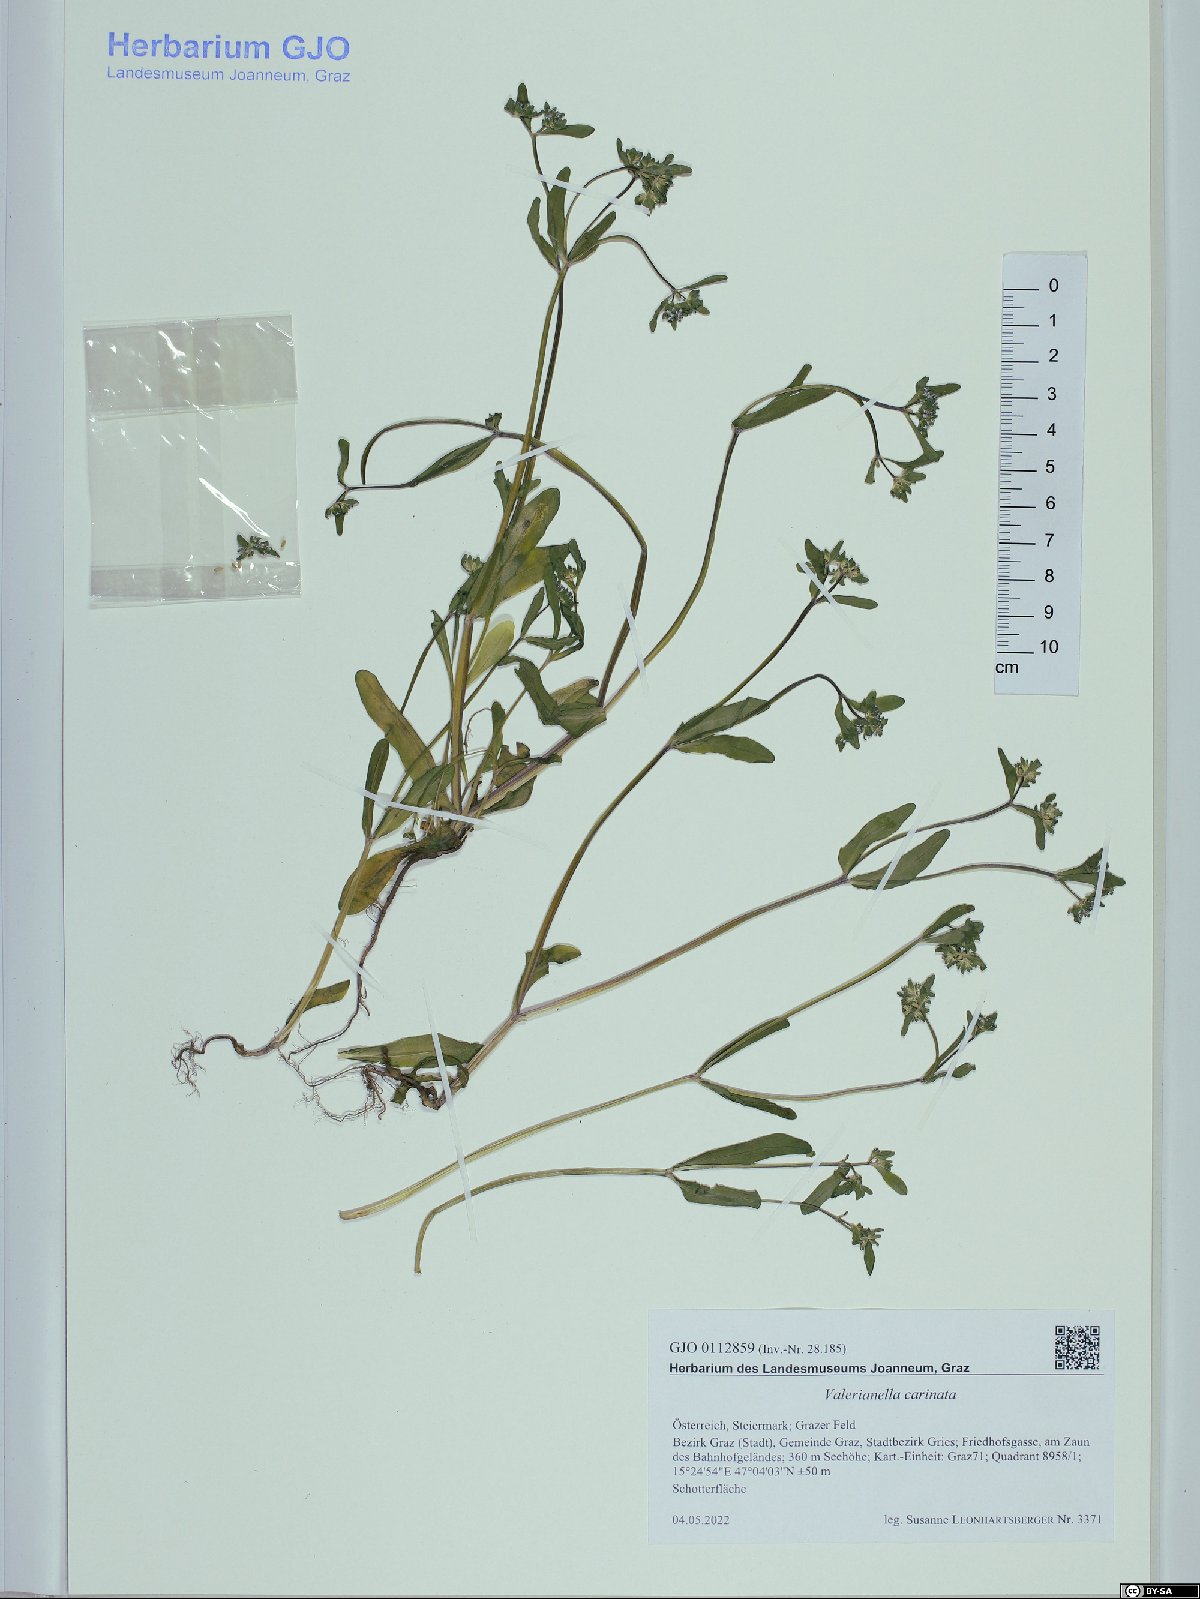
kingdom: Plantae
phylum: Tracheophyta
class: Magnoliopsida
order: Dipsacales
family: Caprifoliaceae
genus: Valerianella
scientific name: Valerianella carinata
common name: Keeled-fruited cornsalad
